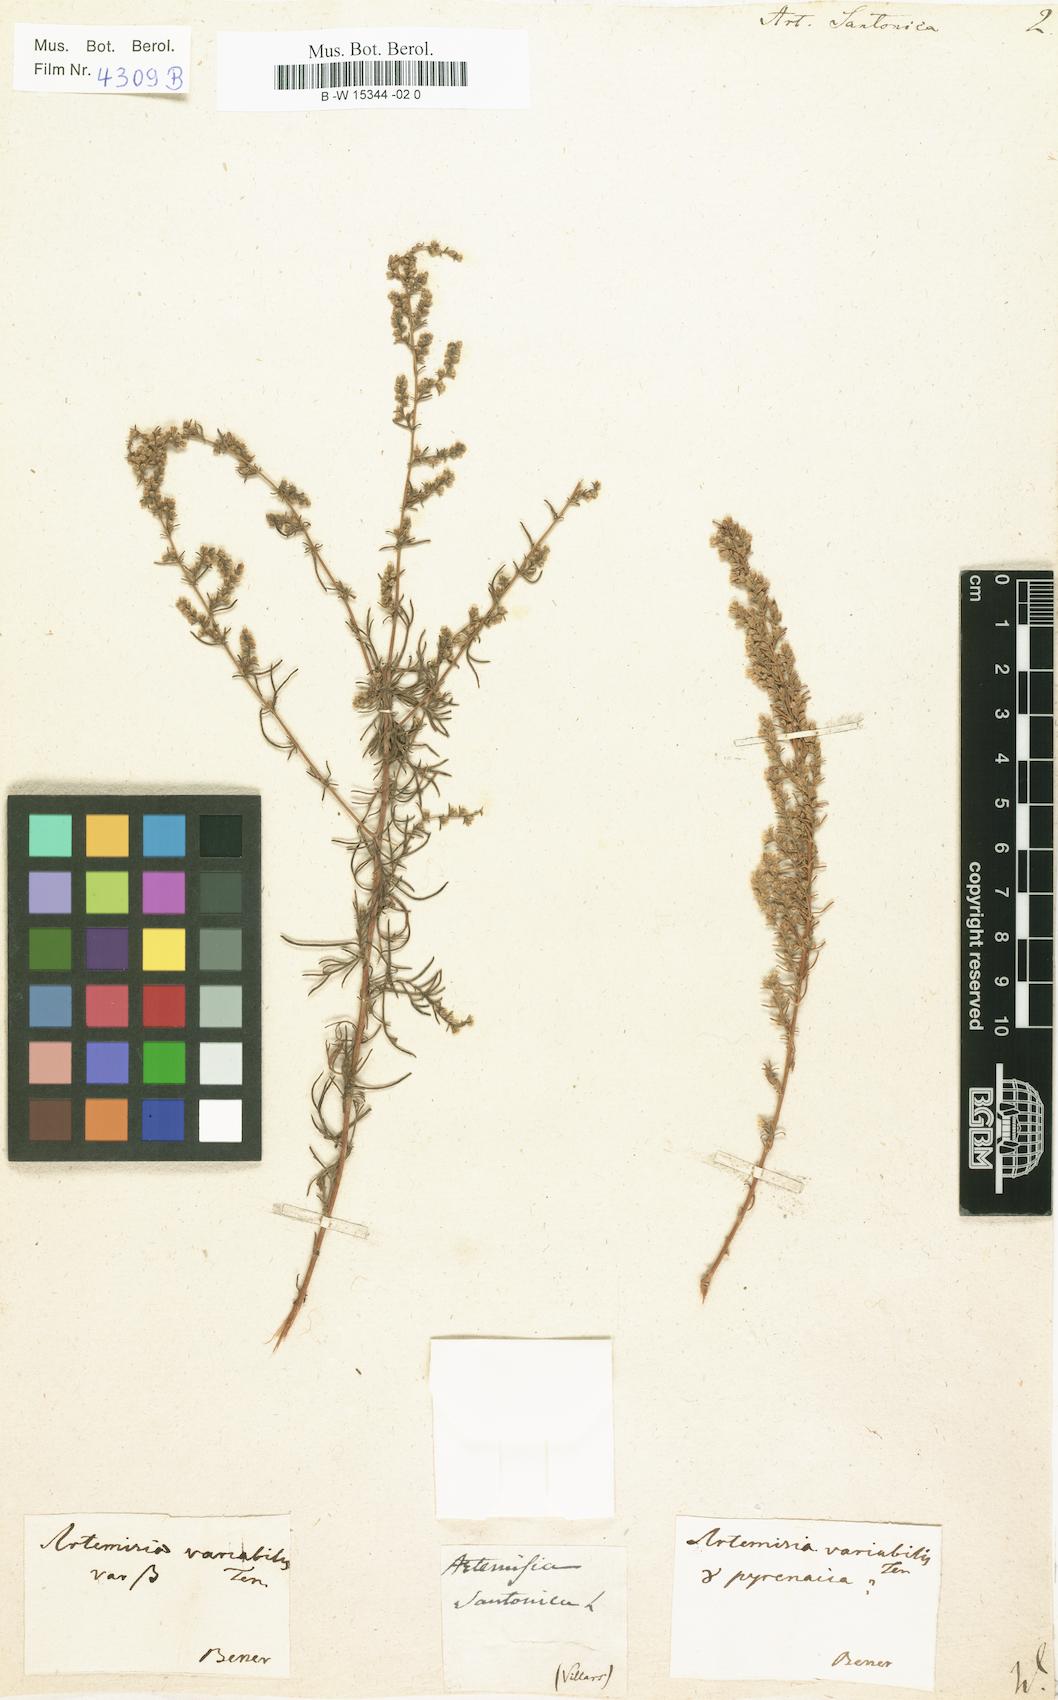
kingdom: Plantae
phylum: Tracheophyta
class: Magnoliopsida
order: Asterales
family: Asteraceae
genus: Artemisia
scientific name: Artemisia santonicum
